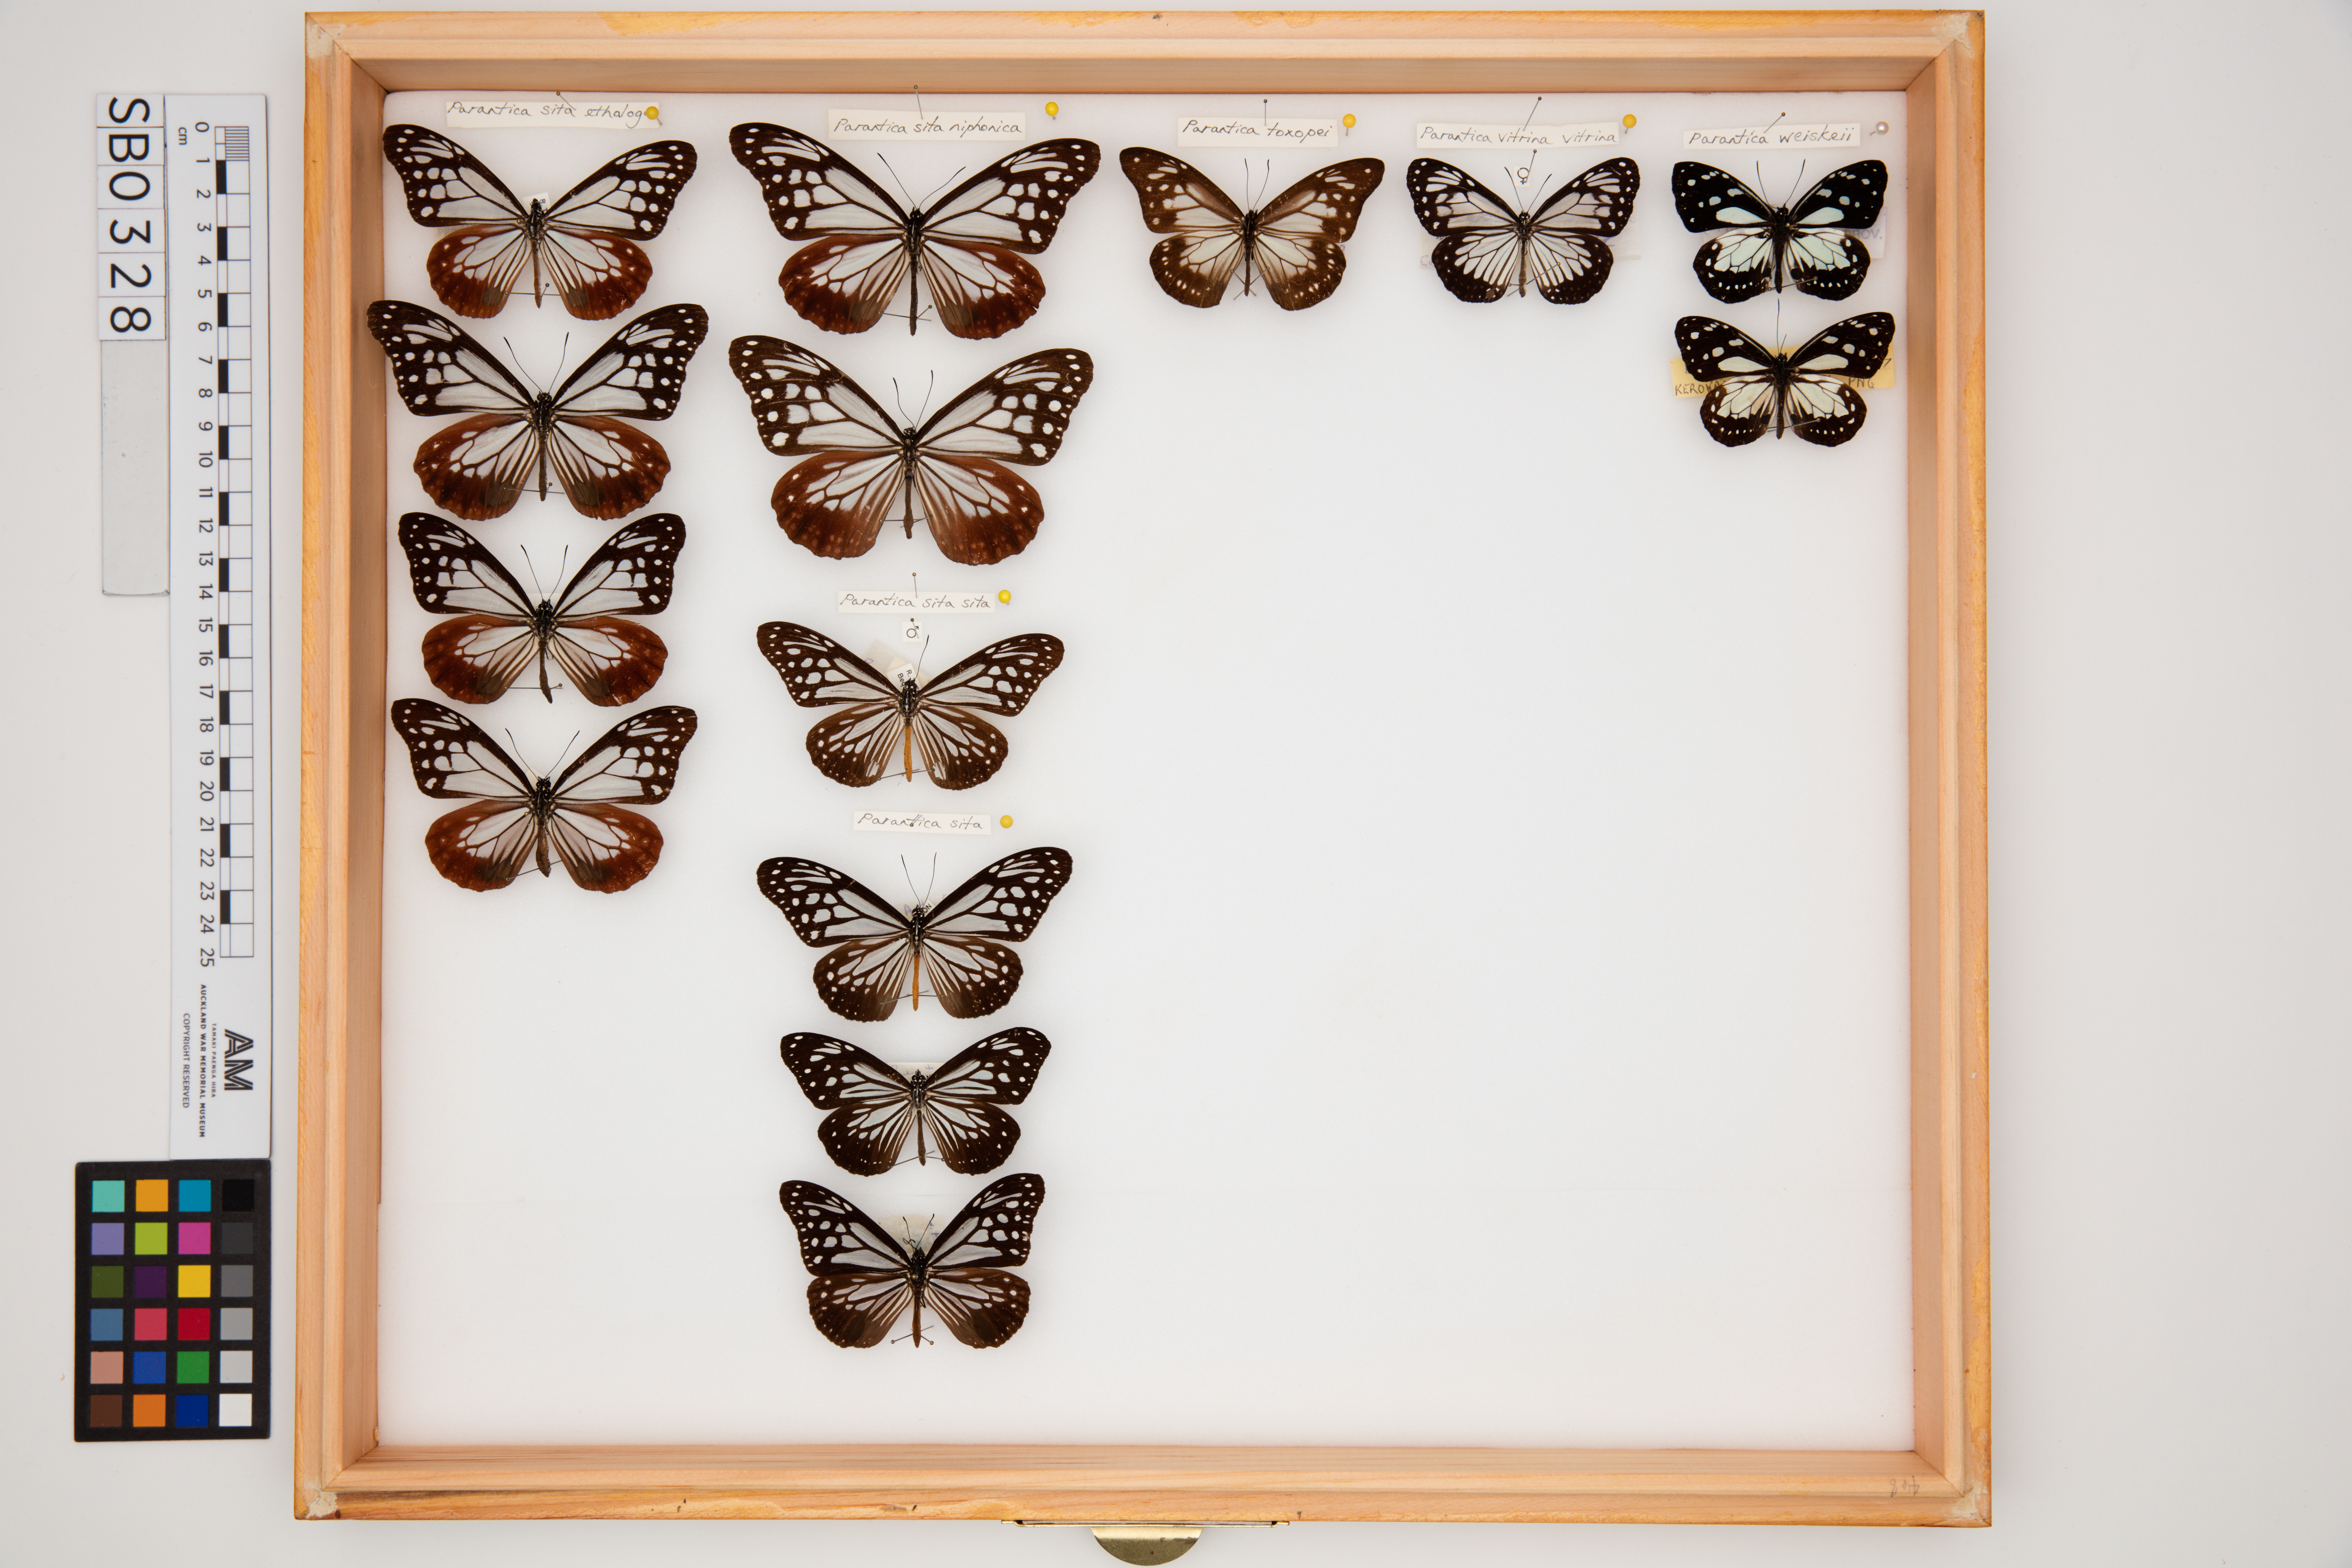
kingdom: Animalia
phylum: Arthropoda
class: Insecta
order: Lepidoptera
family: Nymphalidae
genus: Parantica
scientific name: Parantica sita
